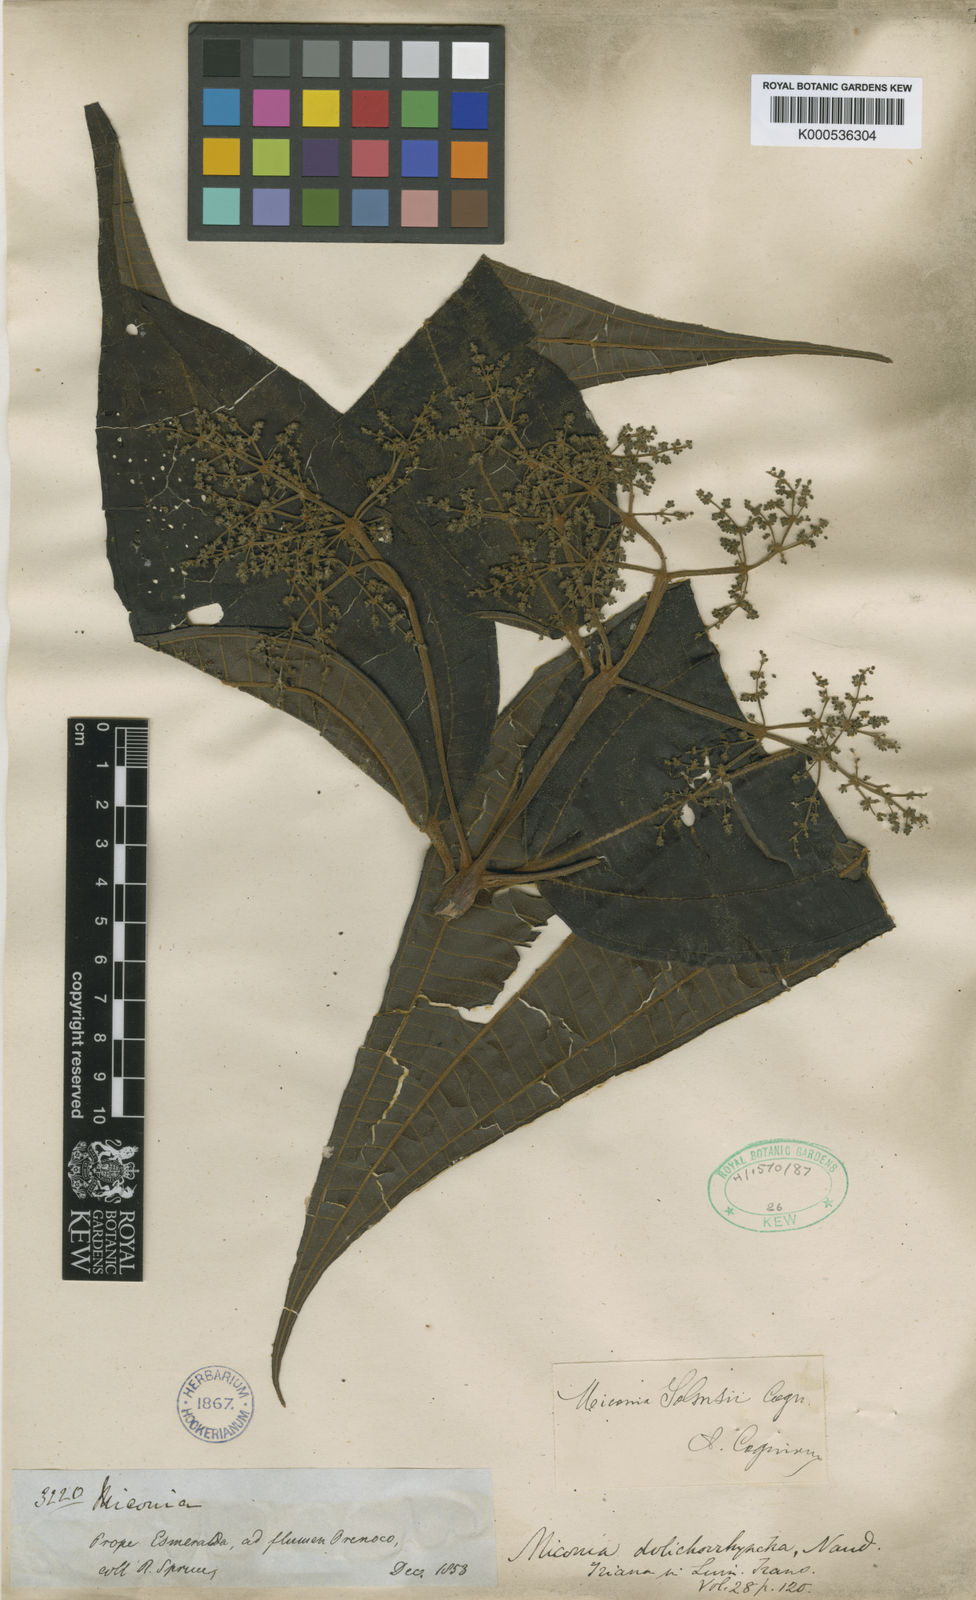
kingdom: Plantae
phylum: Tracheophyta
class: Magnoliopsida
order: Myrtales
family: Melastomataceae
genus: Miconia
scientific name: Miconia dolichorrhyncha
